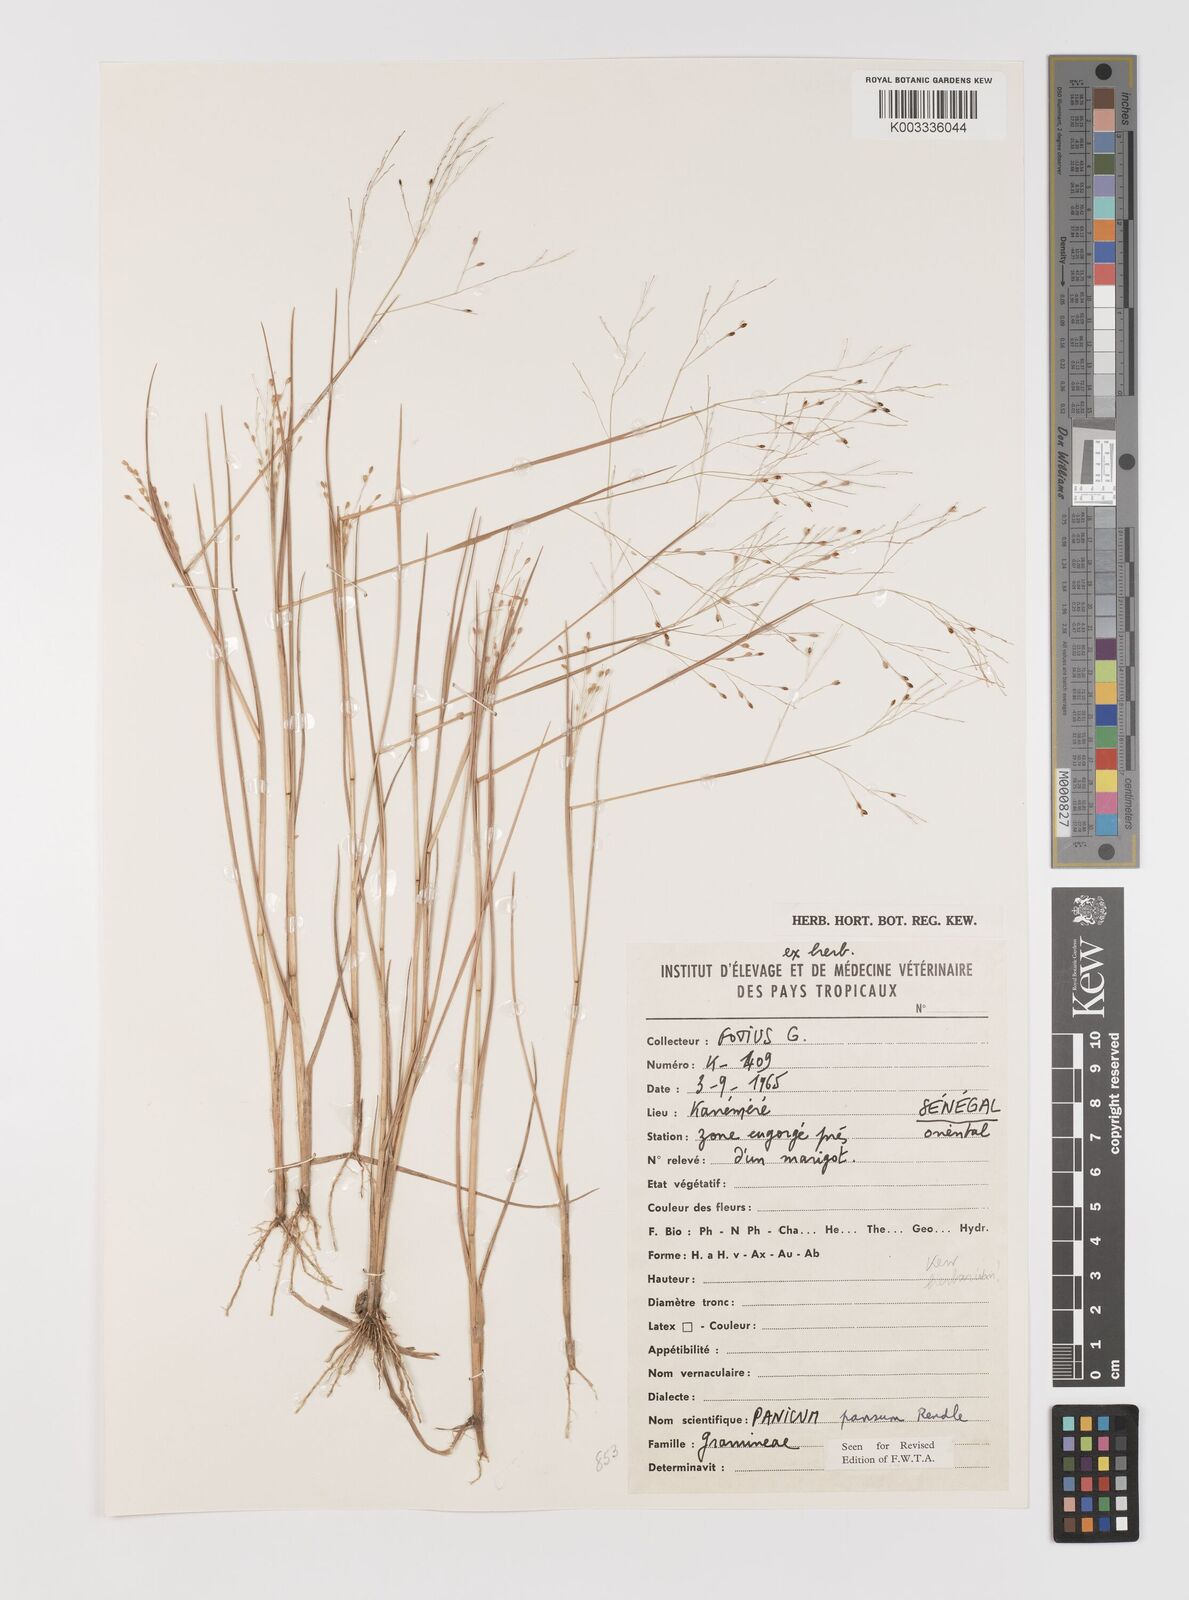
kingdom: Plantae
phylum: Tracheophyta
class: Liliopsida
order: Poales
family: Poaceae
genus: Panicum
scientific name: Panicum haplocaulos
